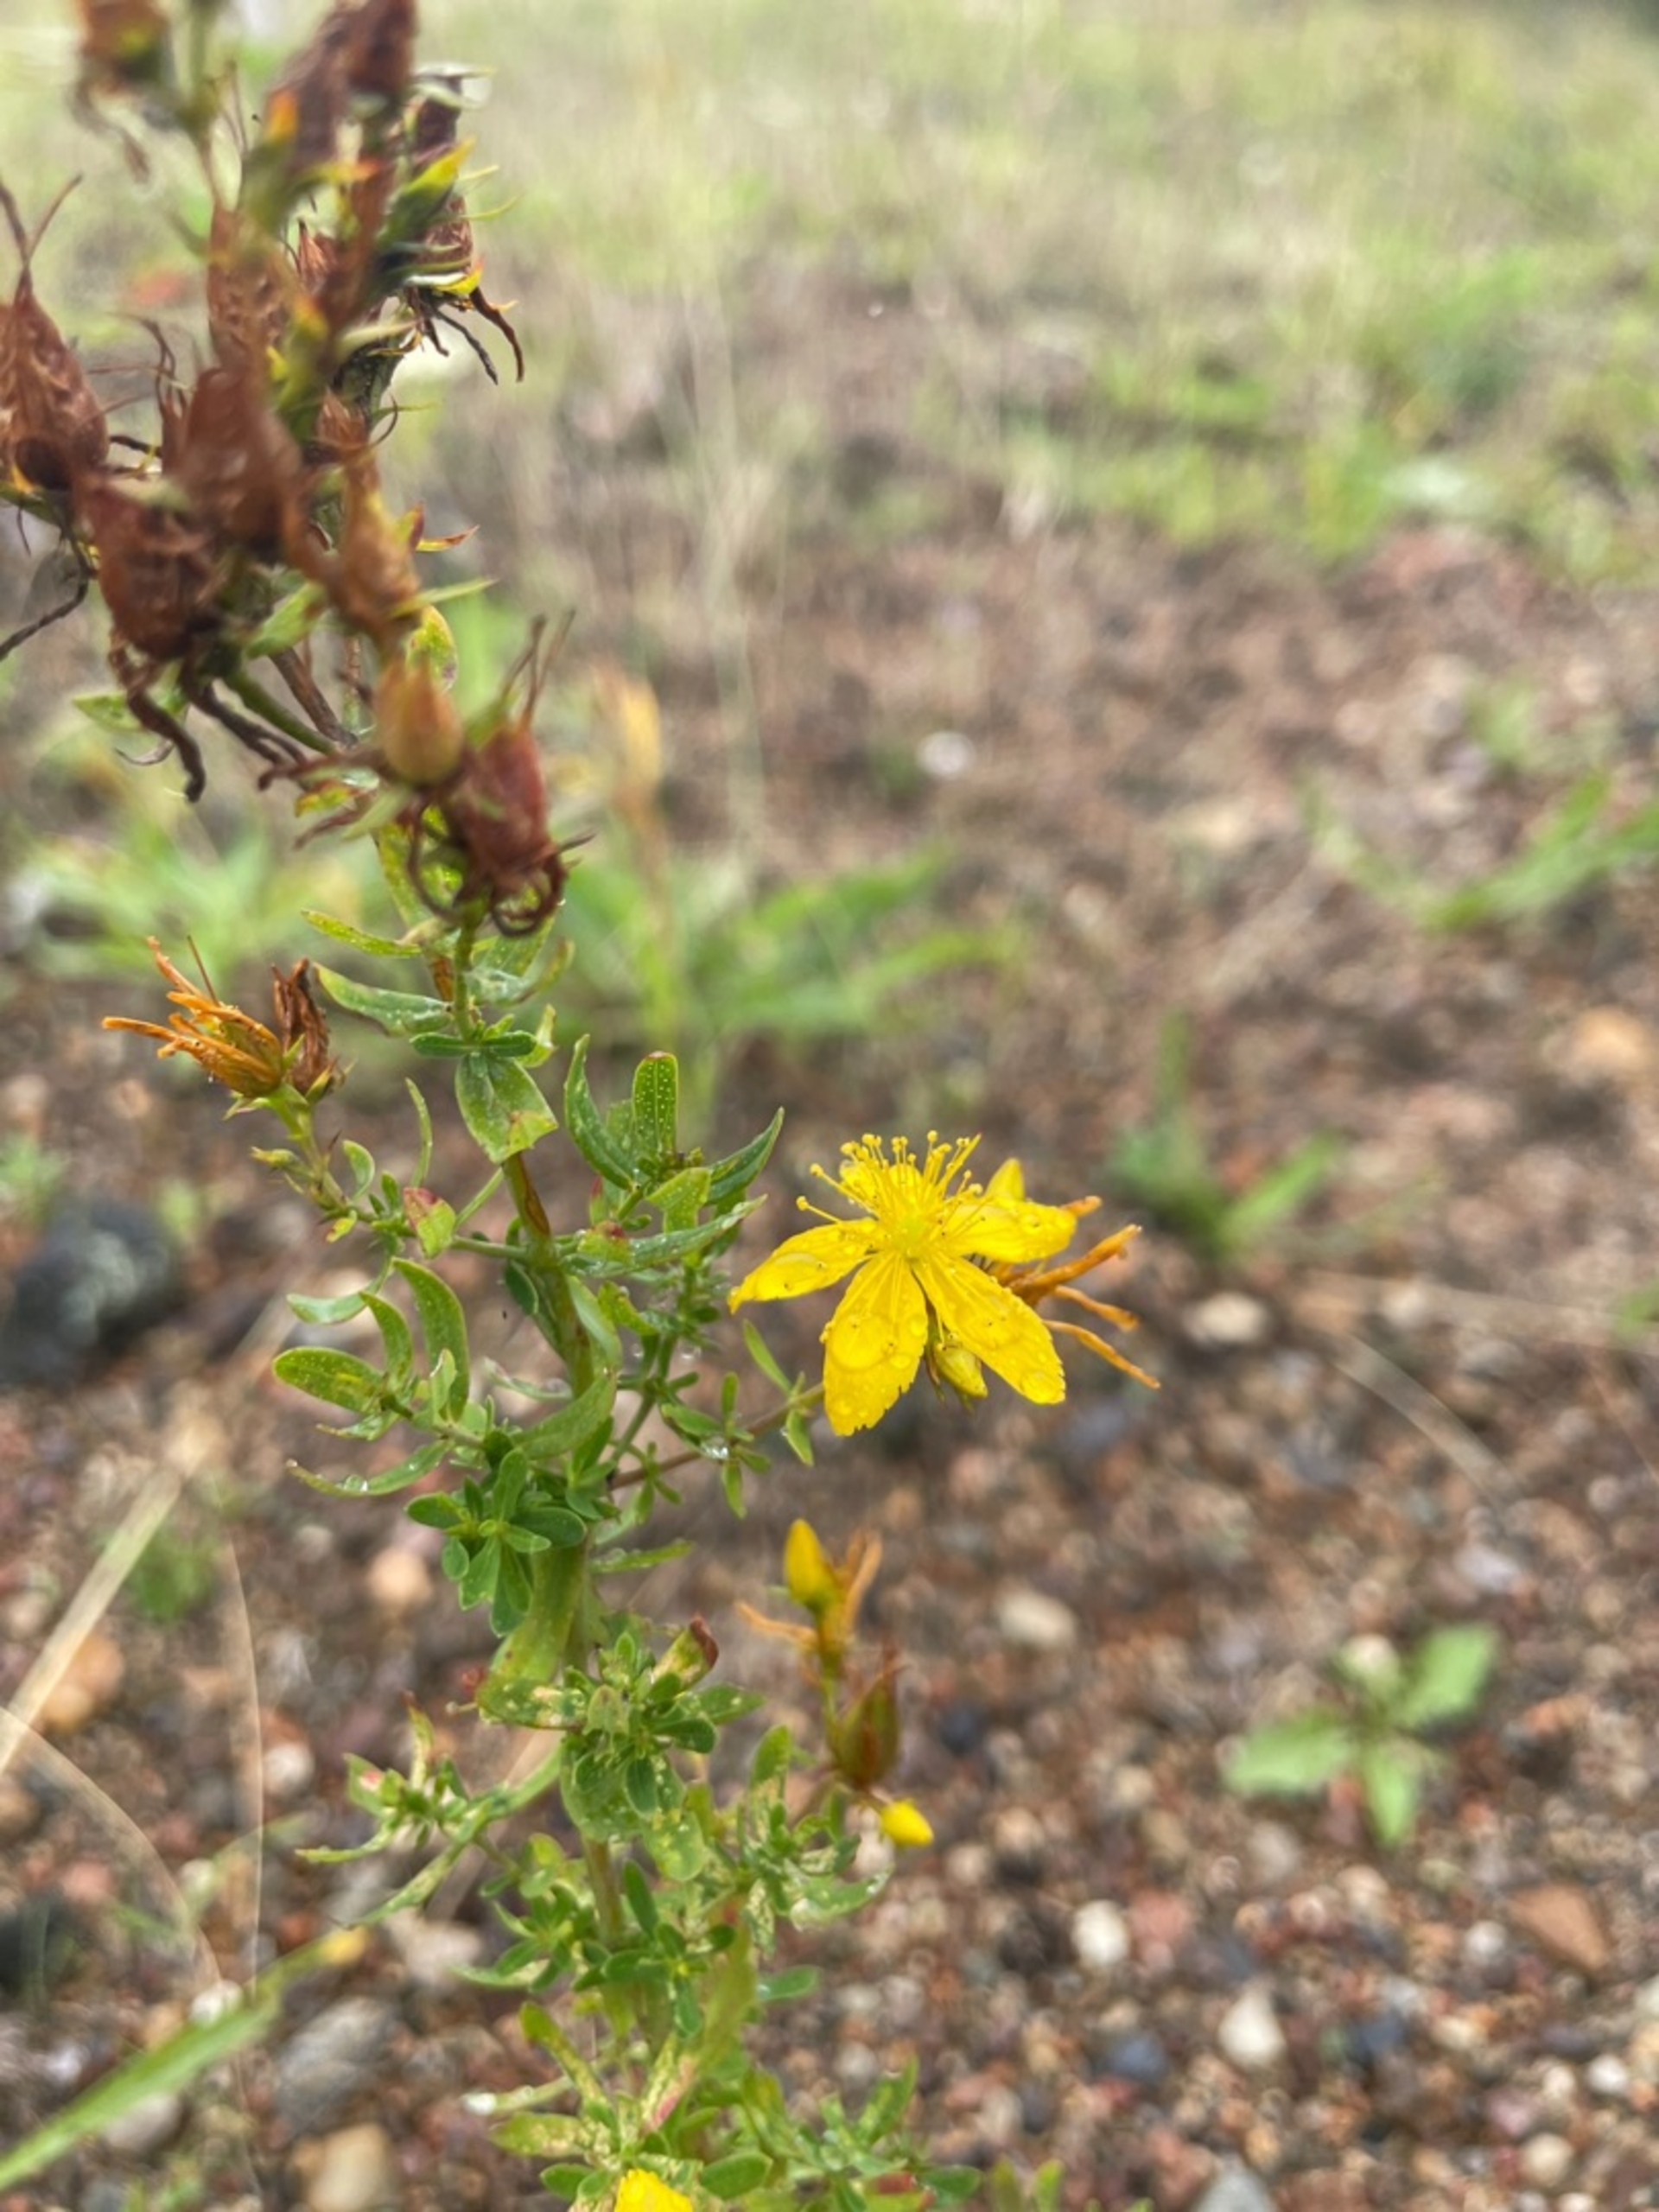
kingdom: Plantae
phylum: Tracheophyta
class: Magnoliopsida
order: Malpighiales
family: Hypericaceae
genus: Hypericum
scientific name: Hypericum perforatum
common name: Prikbladet perikon
